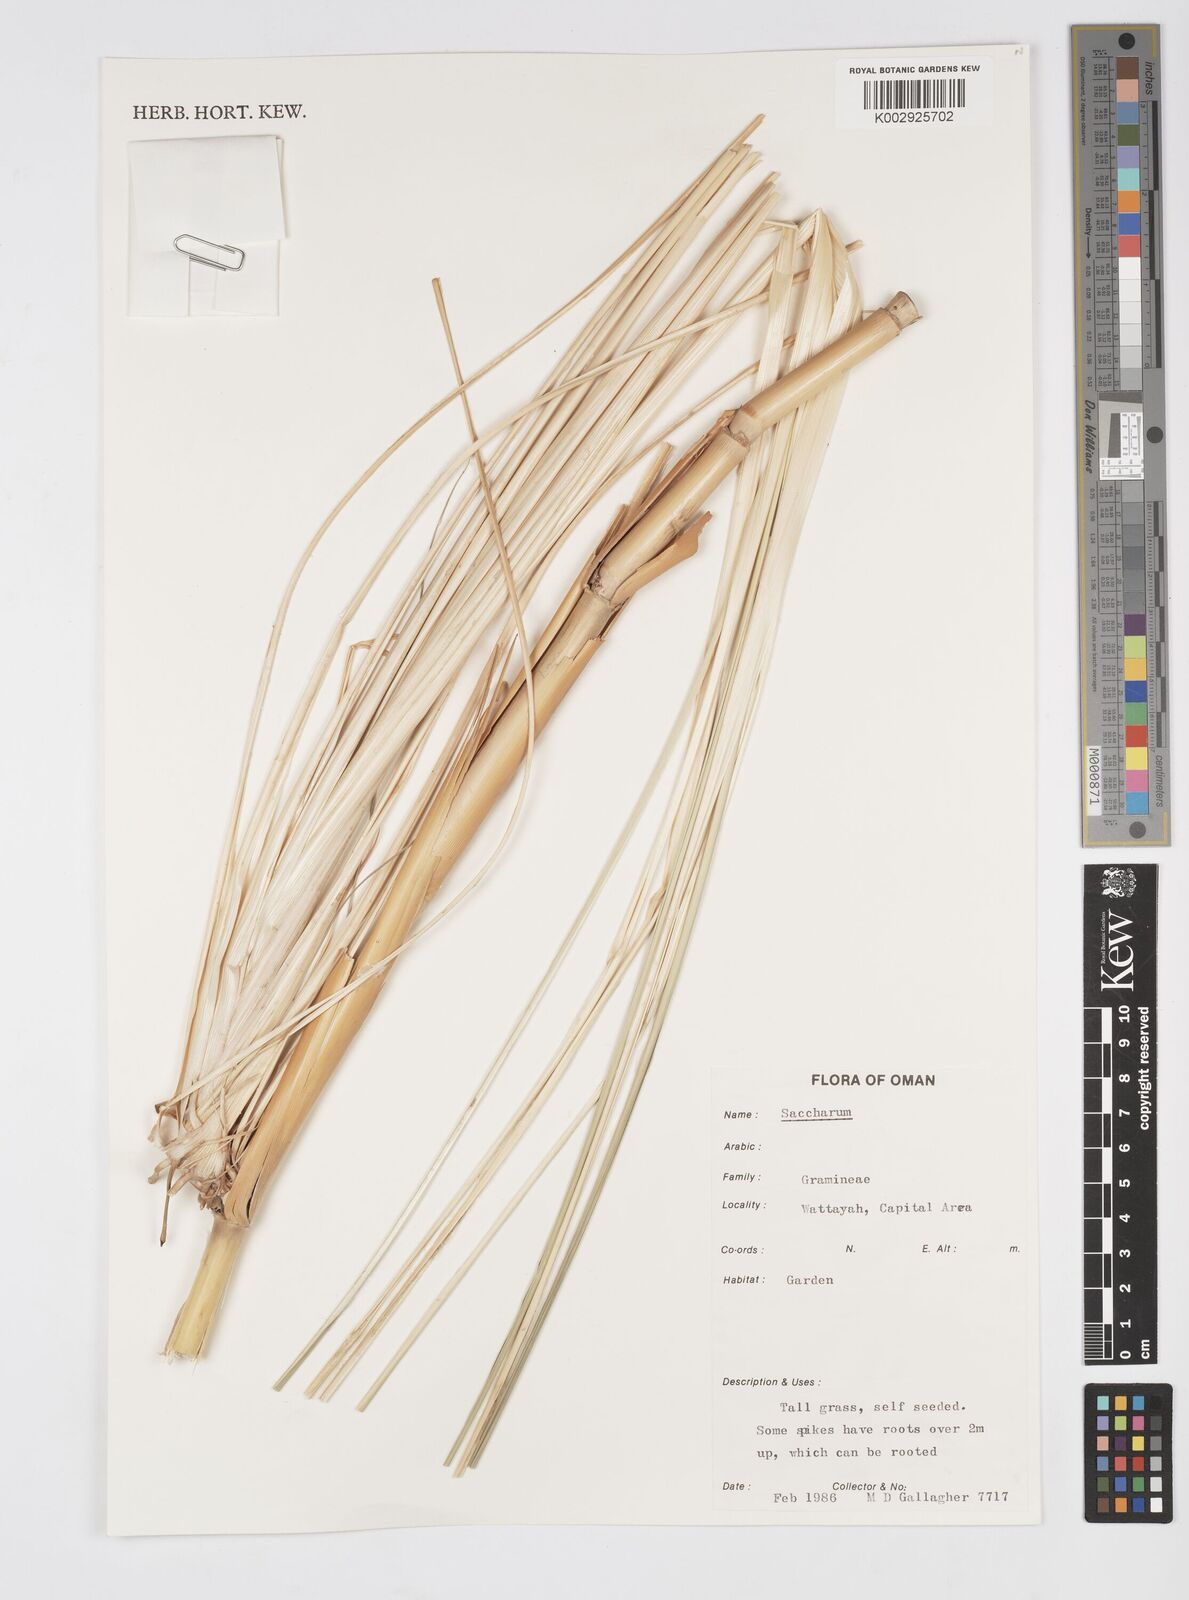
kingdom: Plantae
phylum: Tracheophyta
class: Liliopsida
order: Poales
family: Poaceae
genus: Saccharum
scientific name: Saccharum griffithii
